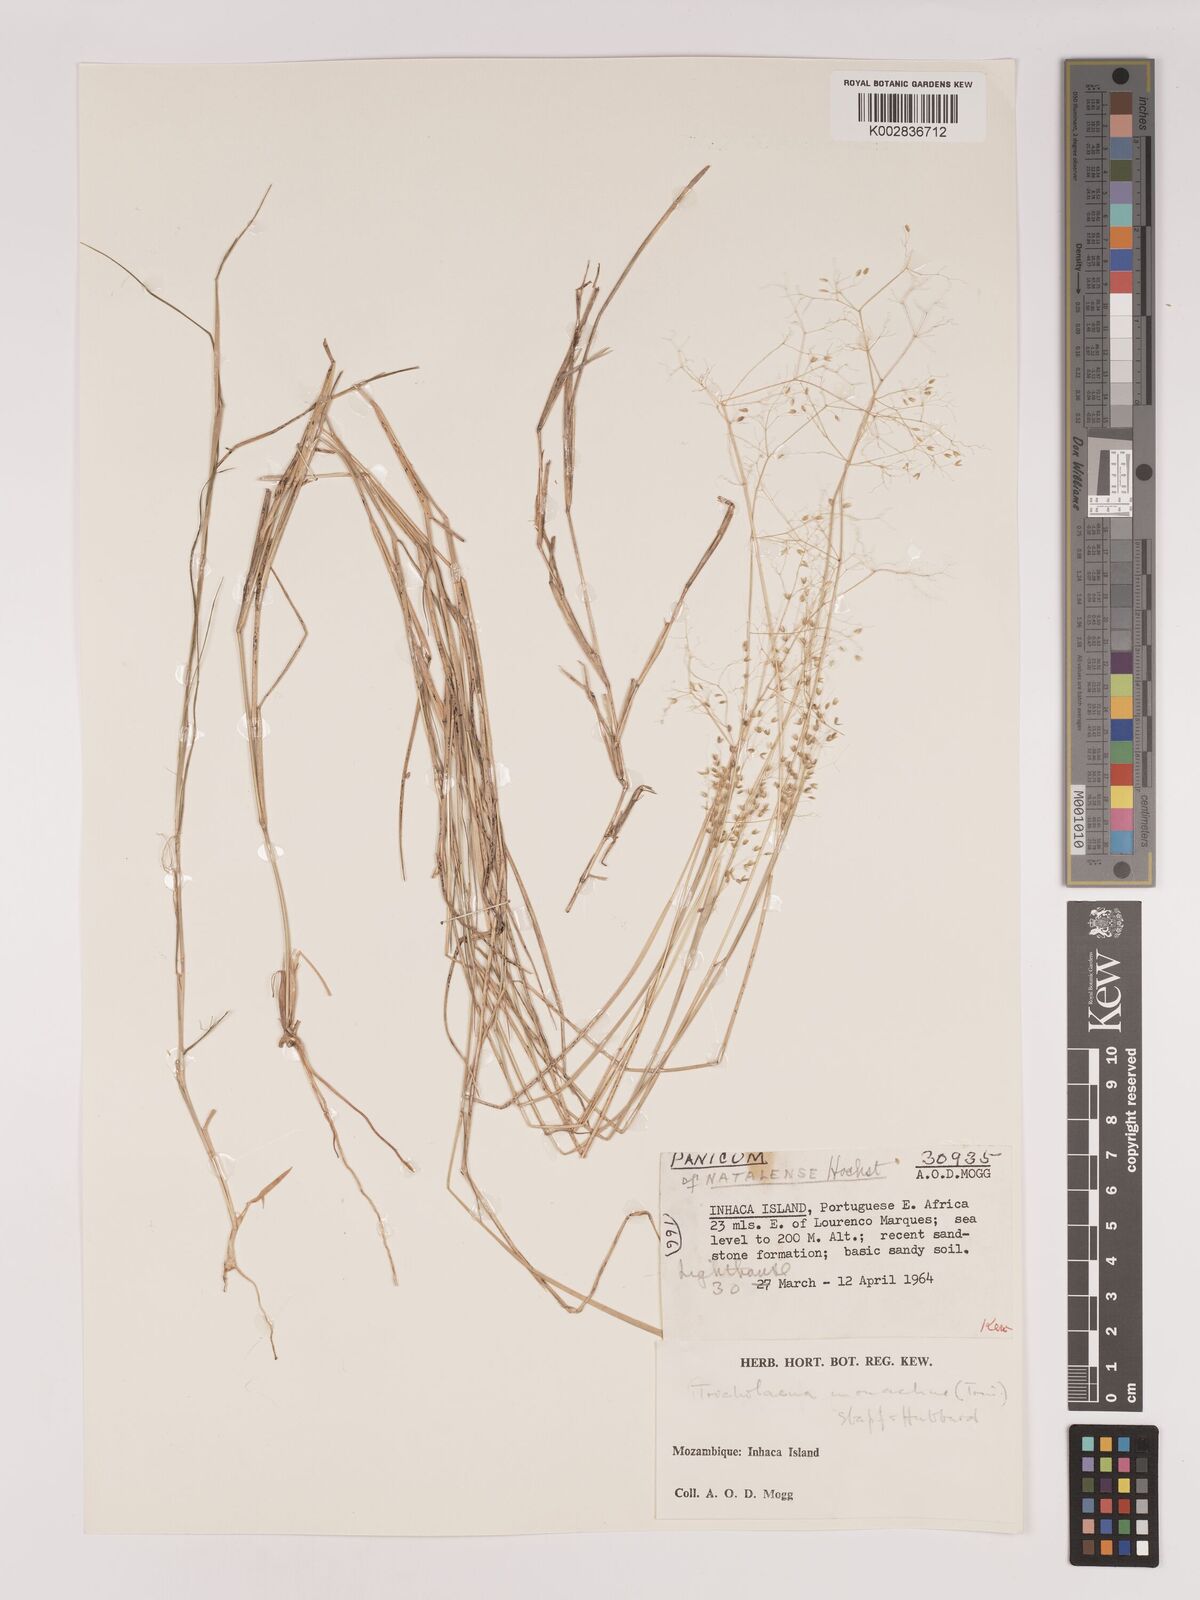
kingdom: Plantae
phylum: Tracheophyta
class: Liliopsida
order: Poales
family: Poaceae
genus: Tricholaena
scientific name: Tricholaena monachne
